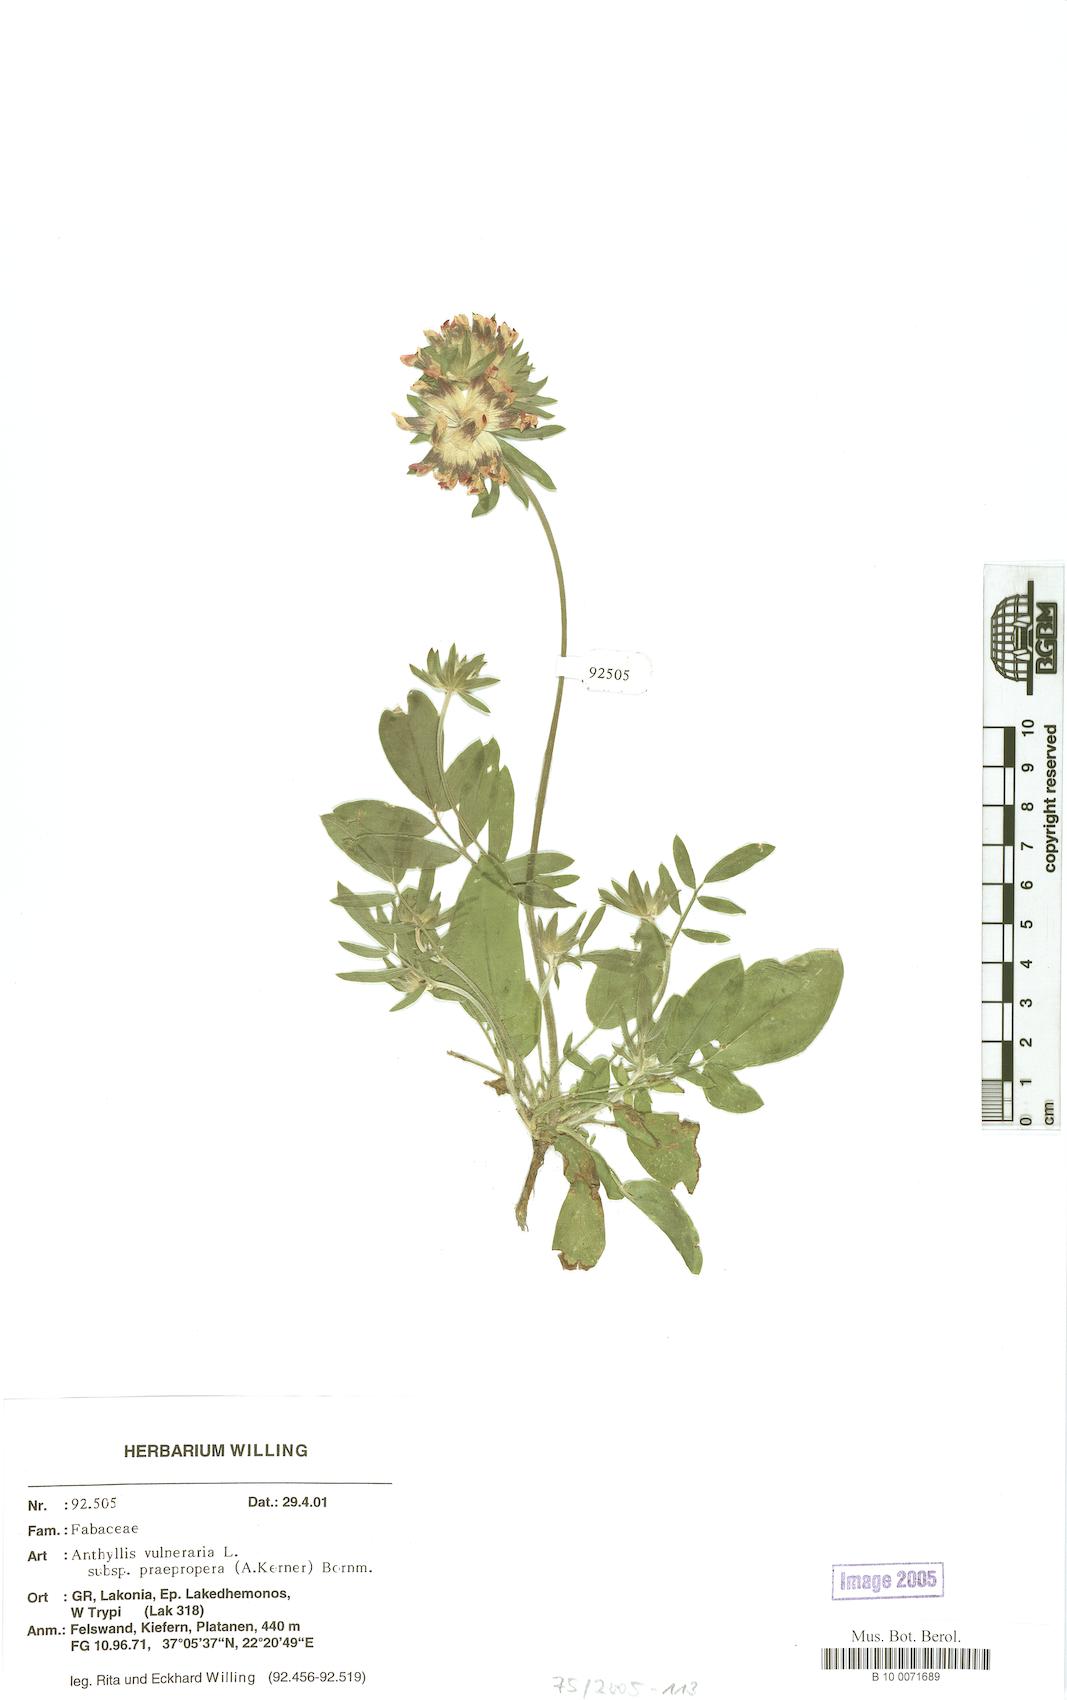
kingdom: Plantae
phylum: Tracheophyta
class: Magnoliopsida
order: Fabales
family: Fabaceae
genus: Anthyllis
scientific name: Anthyllis vulneraria
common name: Kidney vetch
